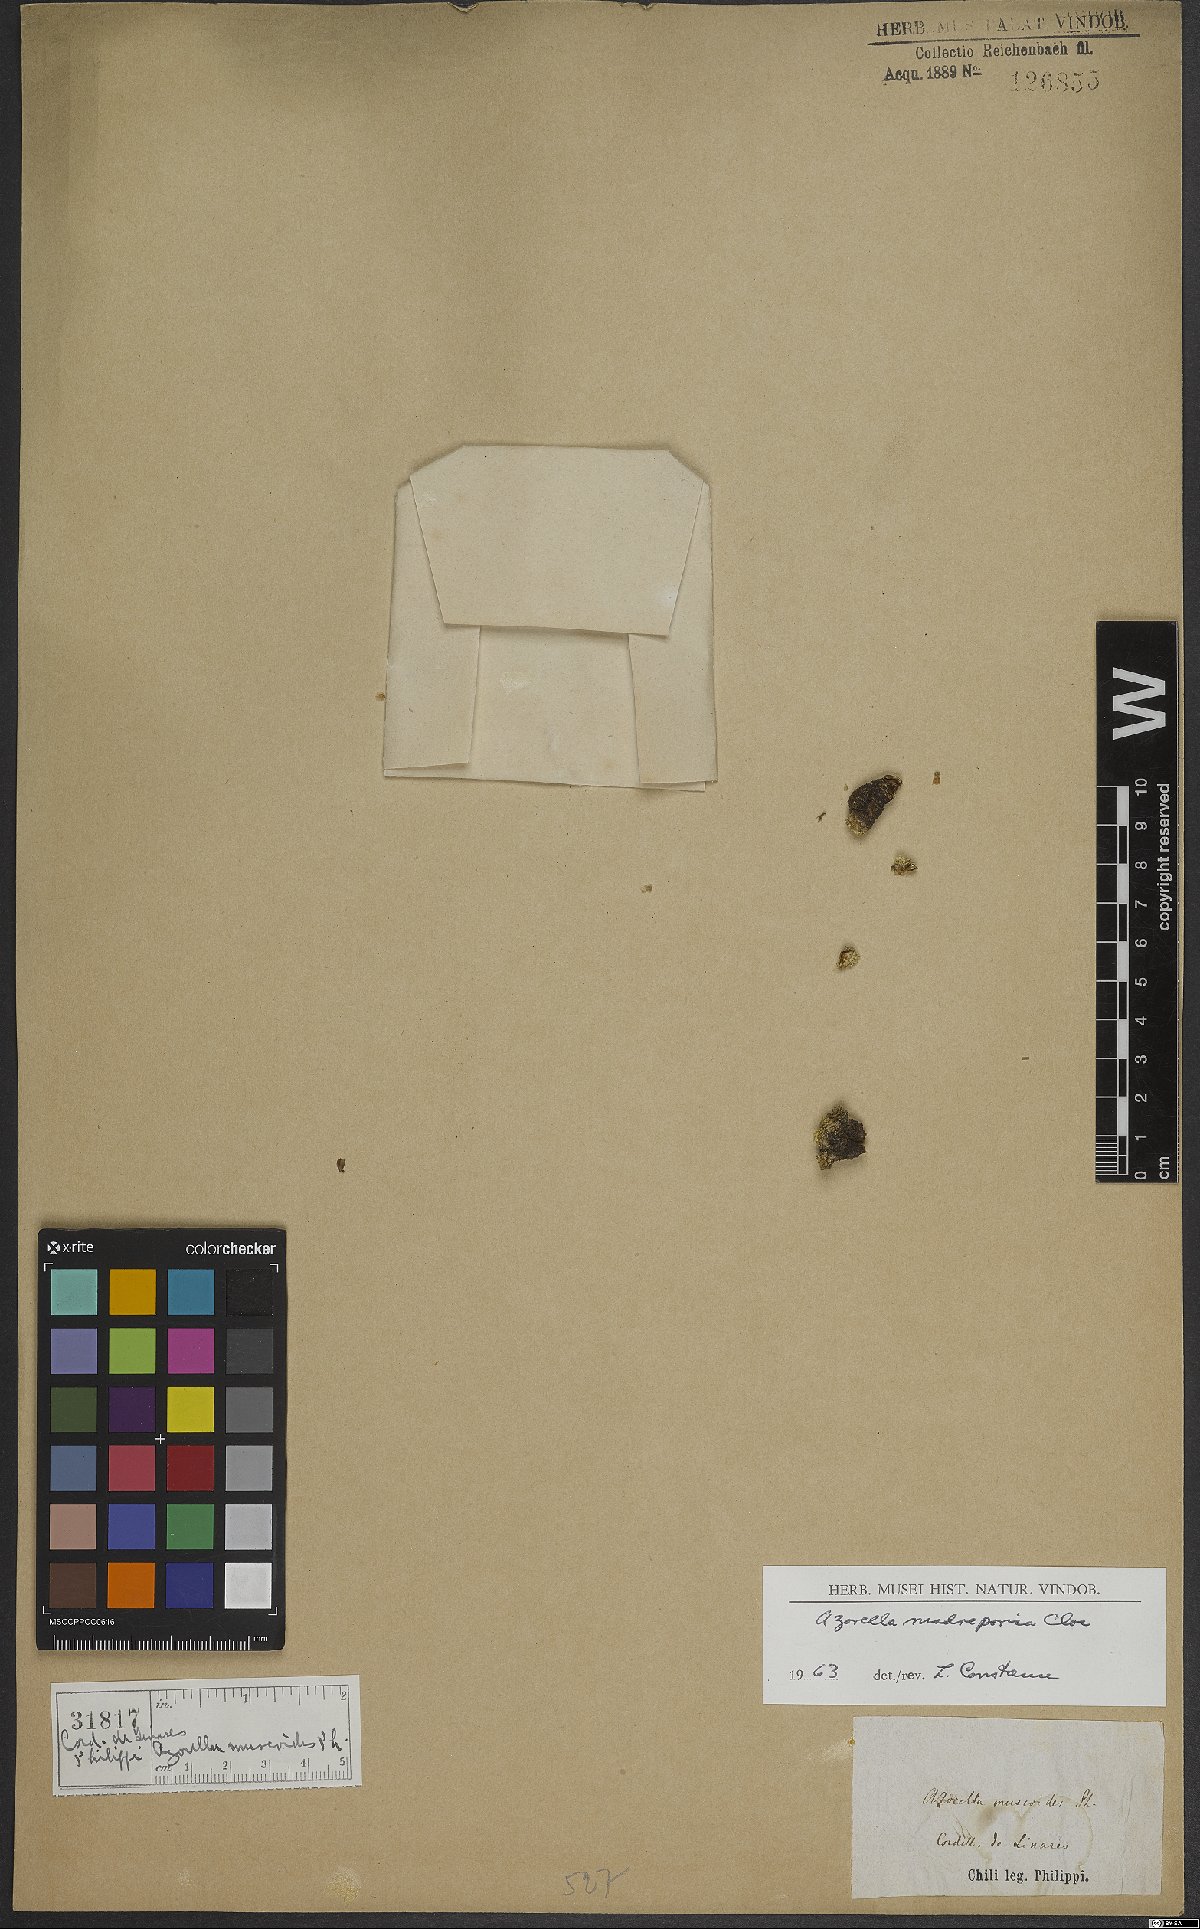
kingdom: Plantae
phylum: Tracheophyta
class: Magnoliopsida
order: Apiales
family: Apiaceae
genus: Azorella
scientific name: Azorella madreporica
